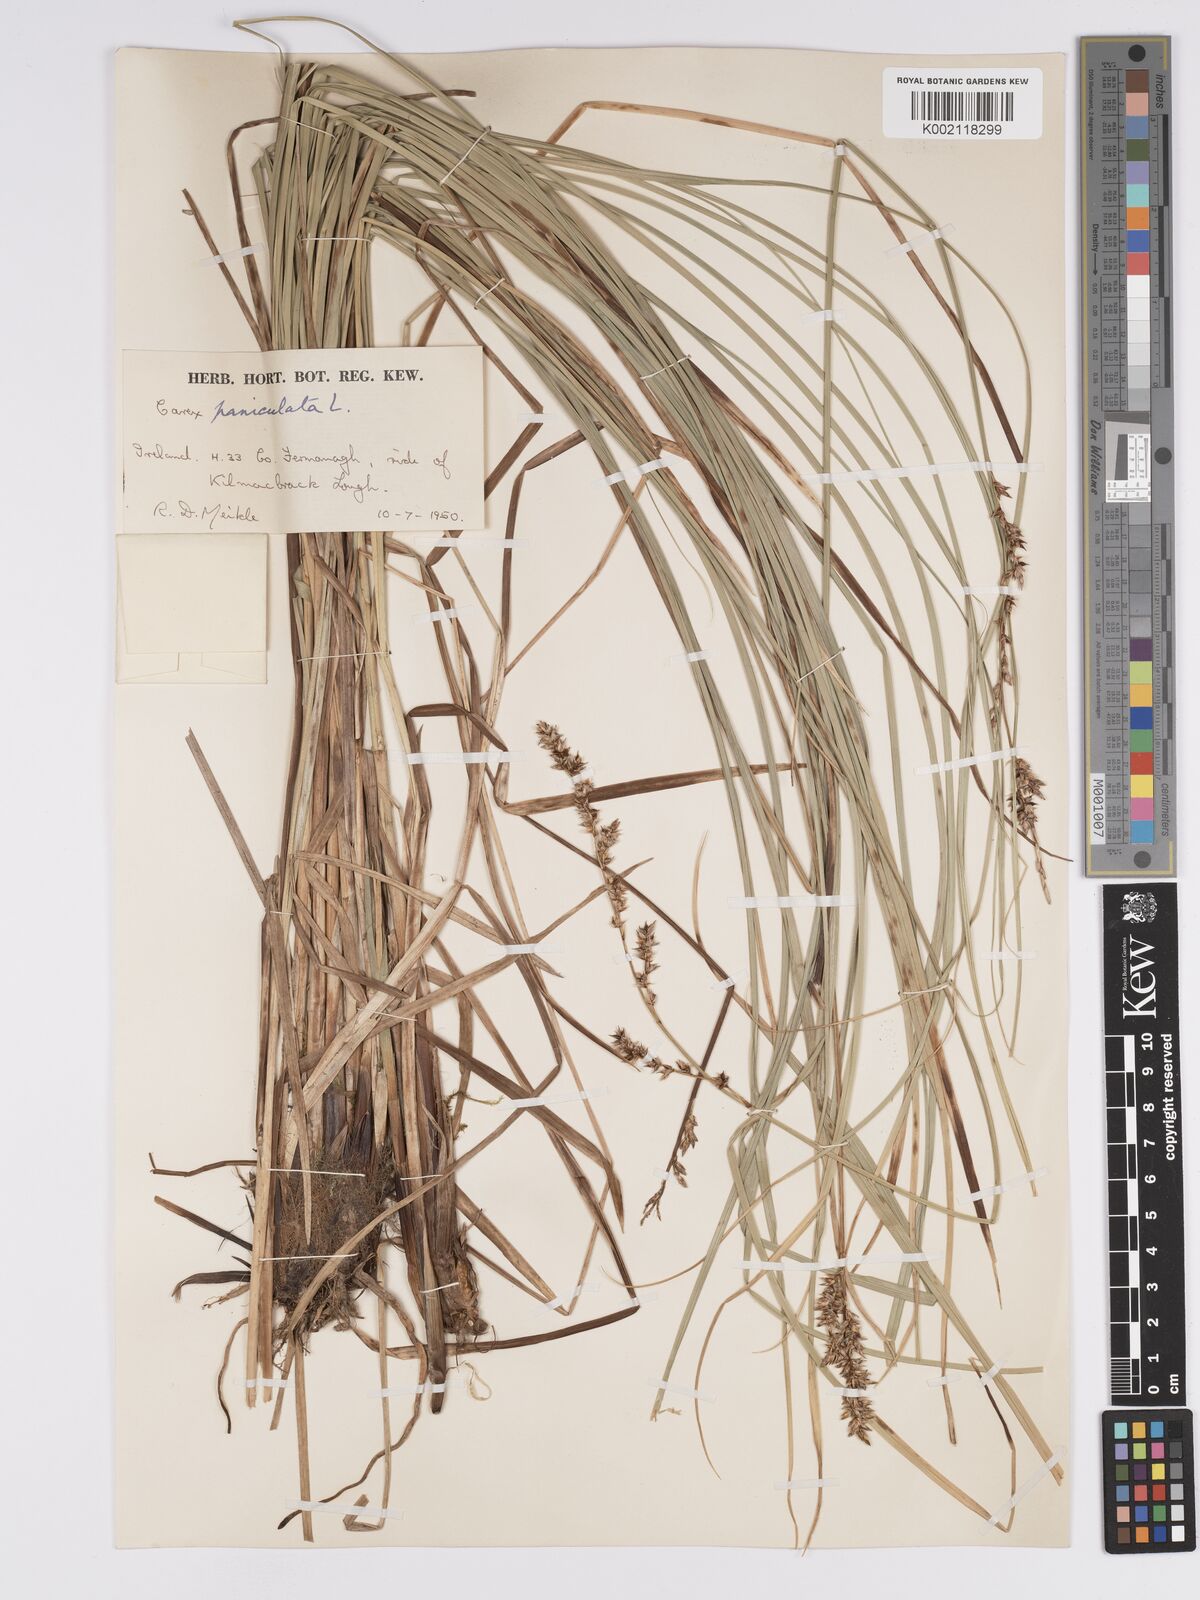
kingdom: Plantae
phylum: Tracheophyta
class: Liliopsida
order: Poales
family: Cyperaceae
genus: Carex
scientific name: Carex paniculata
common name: Greater tussock-sedge
